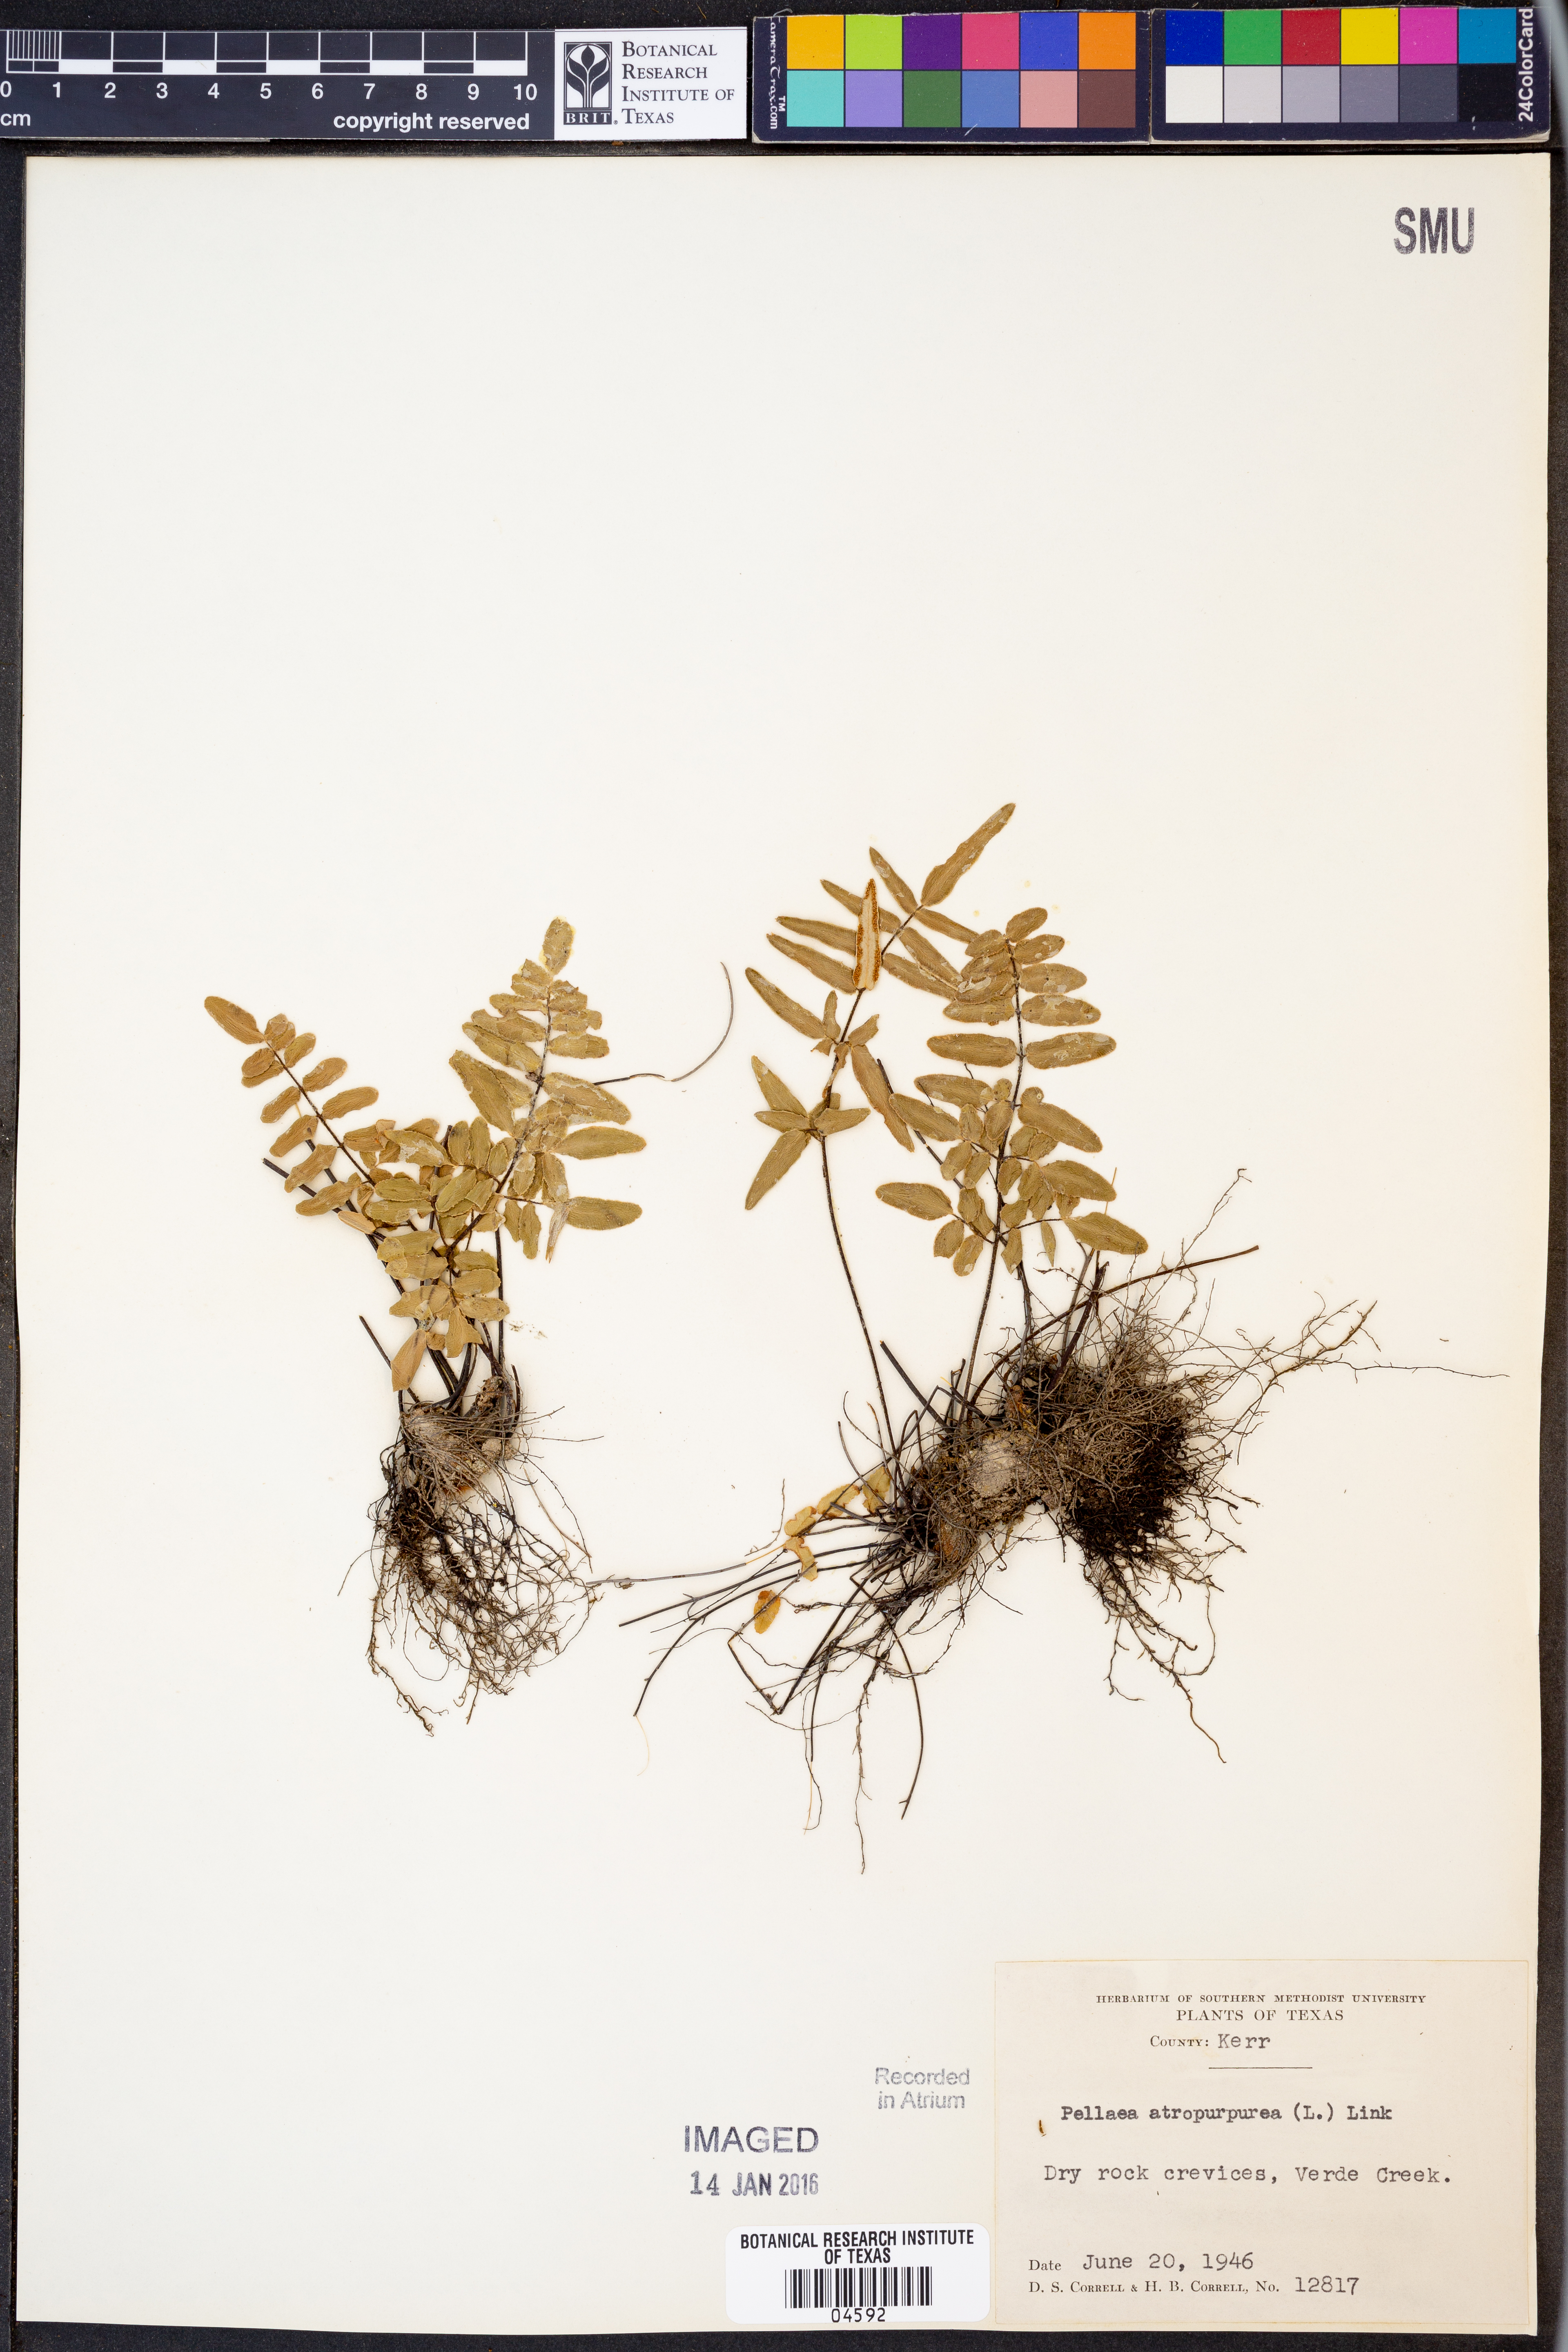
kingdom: Plantae
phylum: Tracheophyta
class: Polypodiopsida
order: Polypodiales
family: Pteridaceae
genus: Pellaea
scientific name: Pellaea atropurpurea
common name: Hairy cliffbrake
